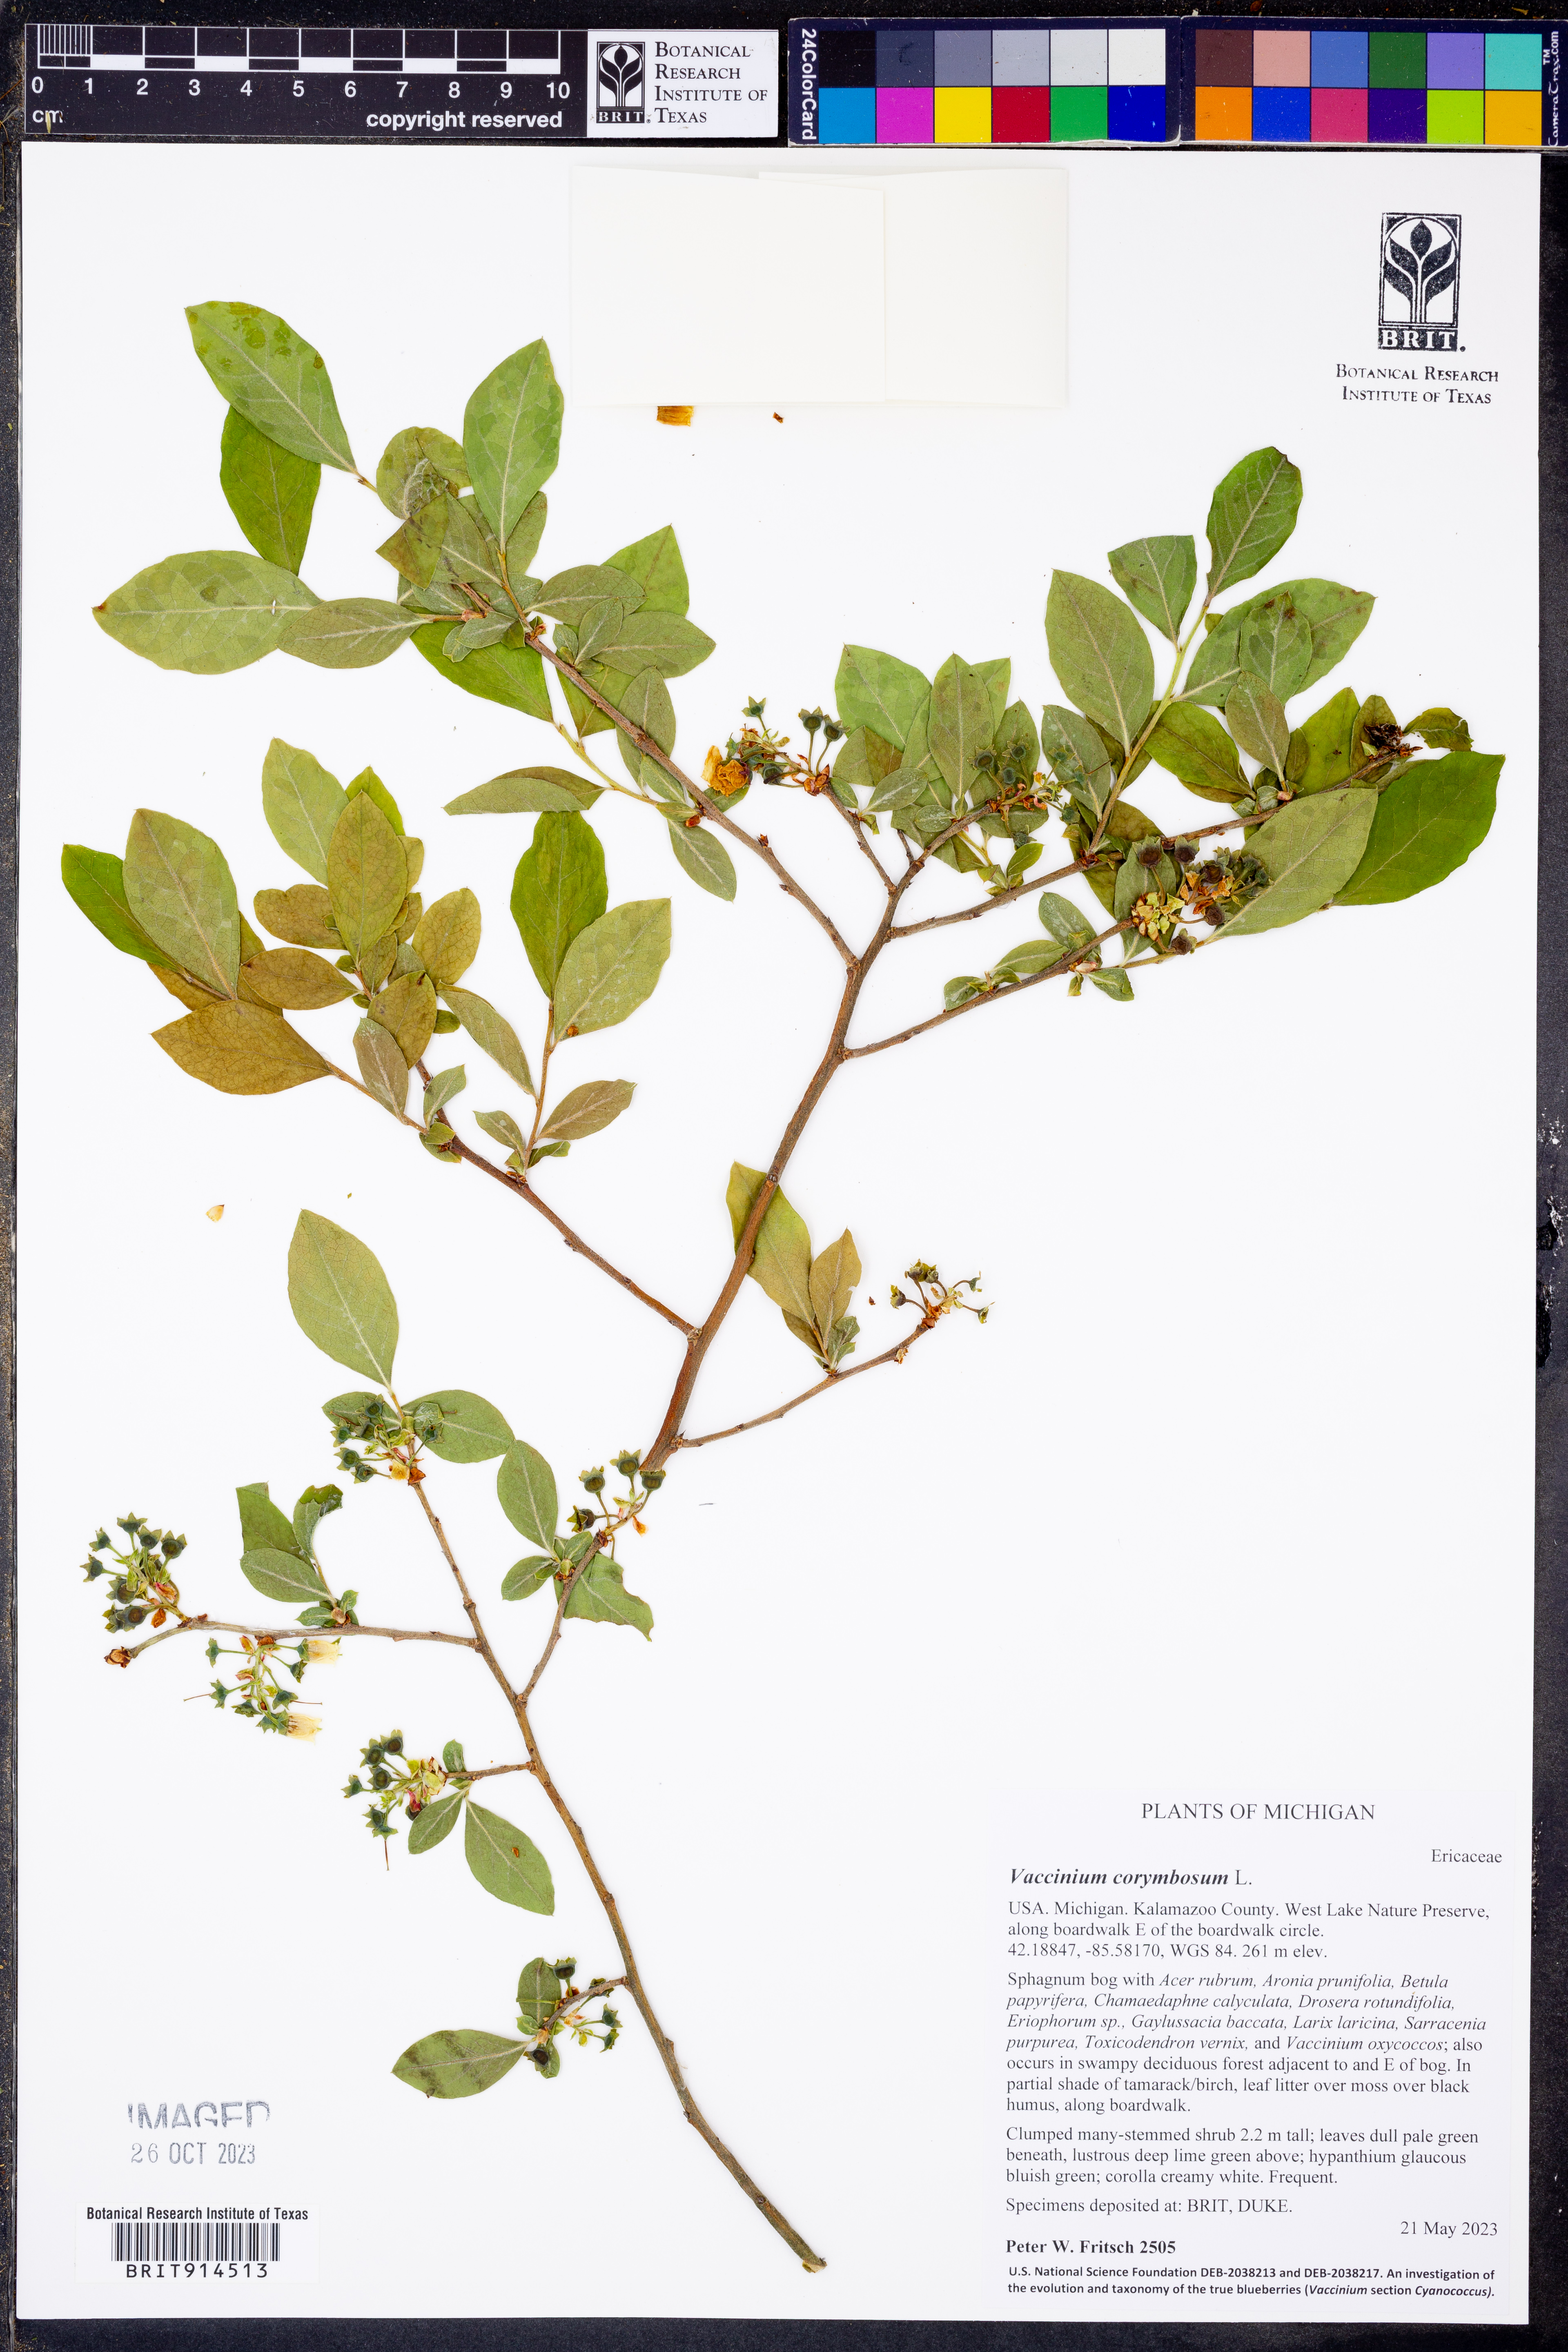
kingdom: Plantae
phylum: Tracheophyta
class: Magnoliopsida
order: Ericales
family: Ericaceae
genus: Vaccinium
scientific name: Vaccinium corymbosum
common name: Blueberry
